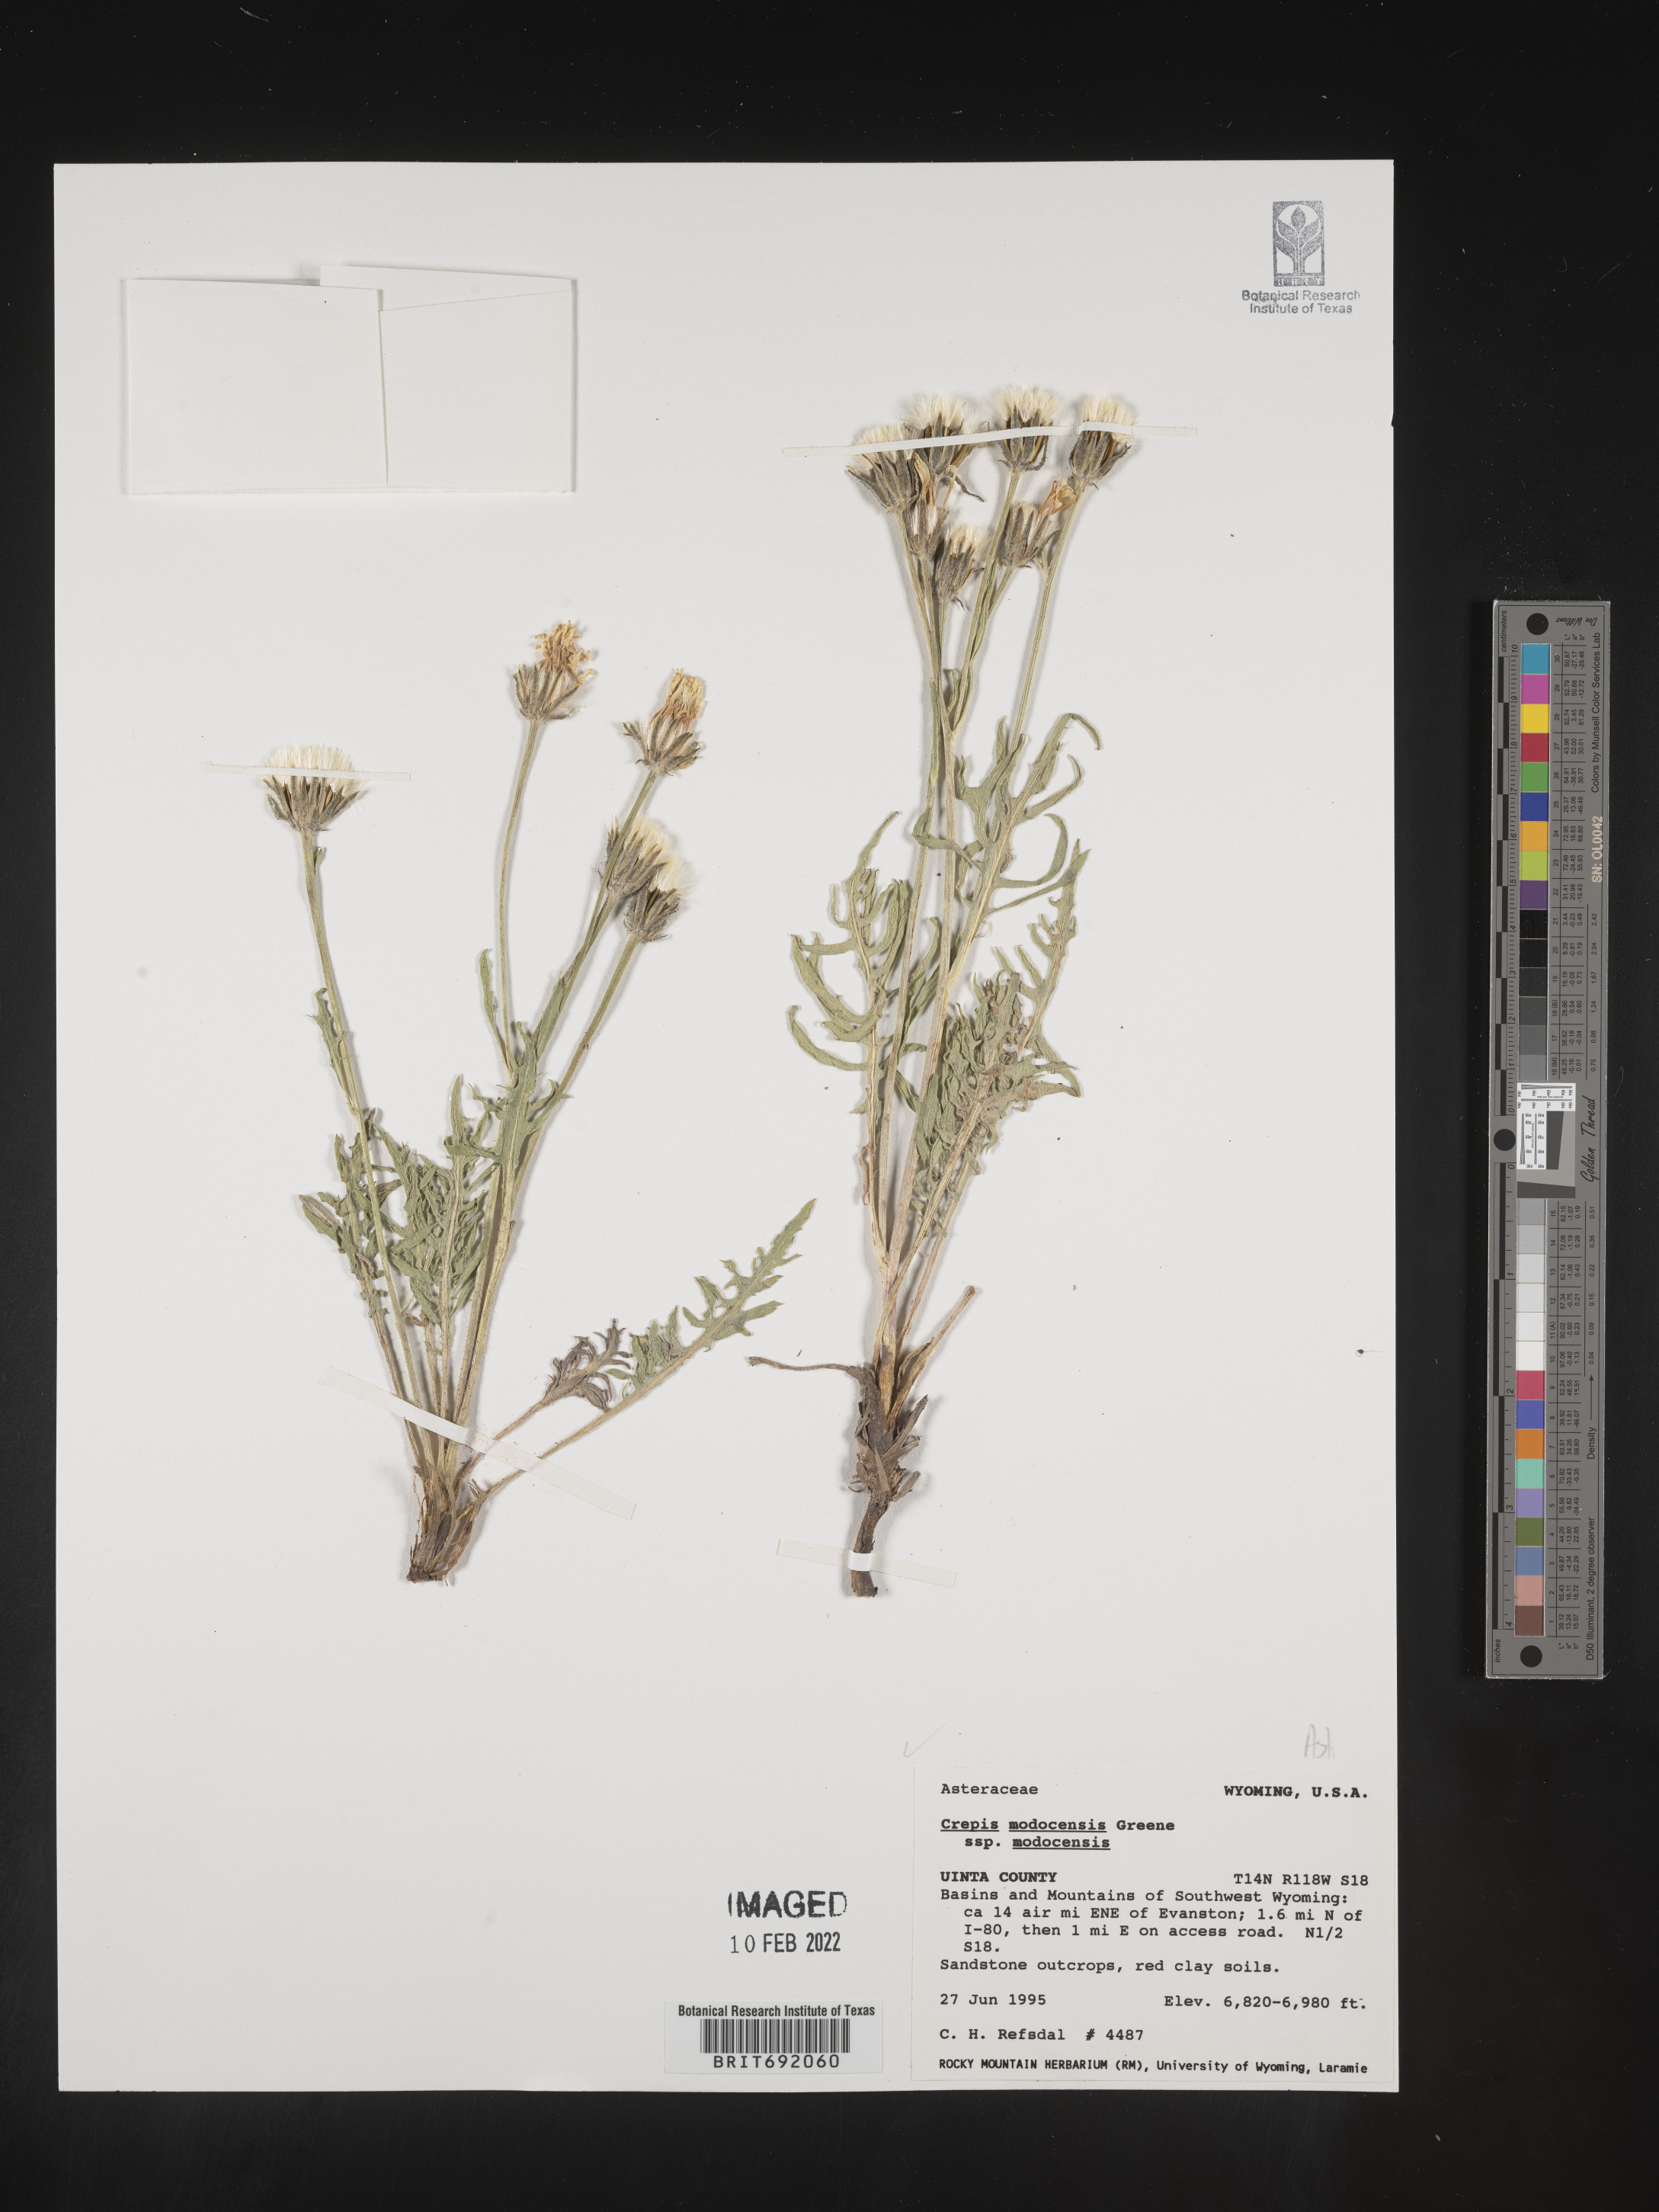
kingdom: Plantae
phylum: Tracheophyta
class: Magnoliopsida
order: Asterales
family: Asteraceae
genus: Crepis
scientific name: Crepis
